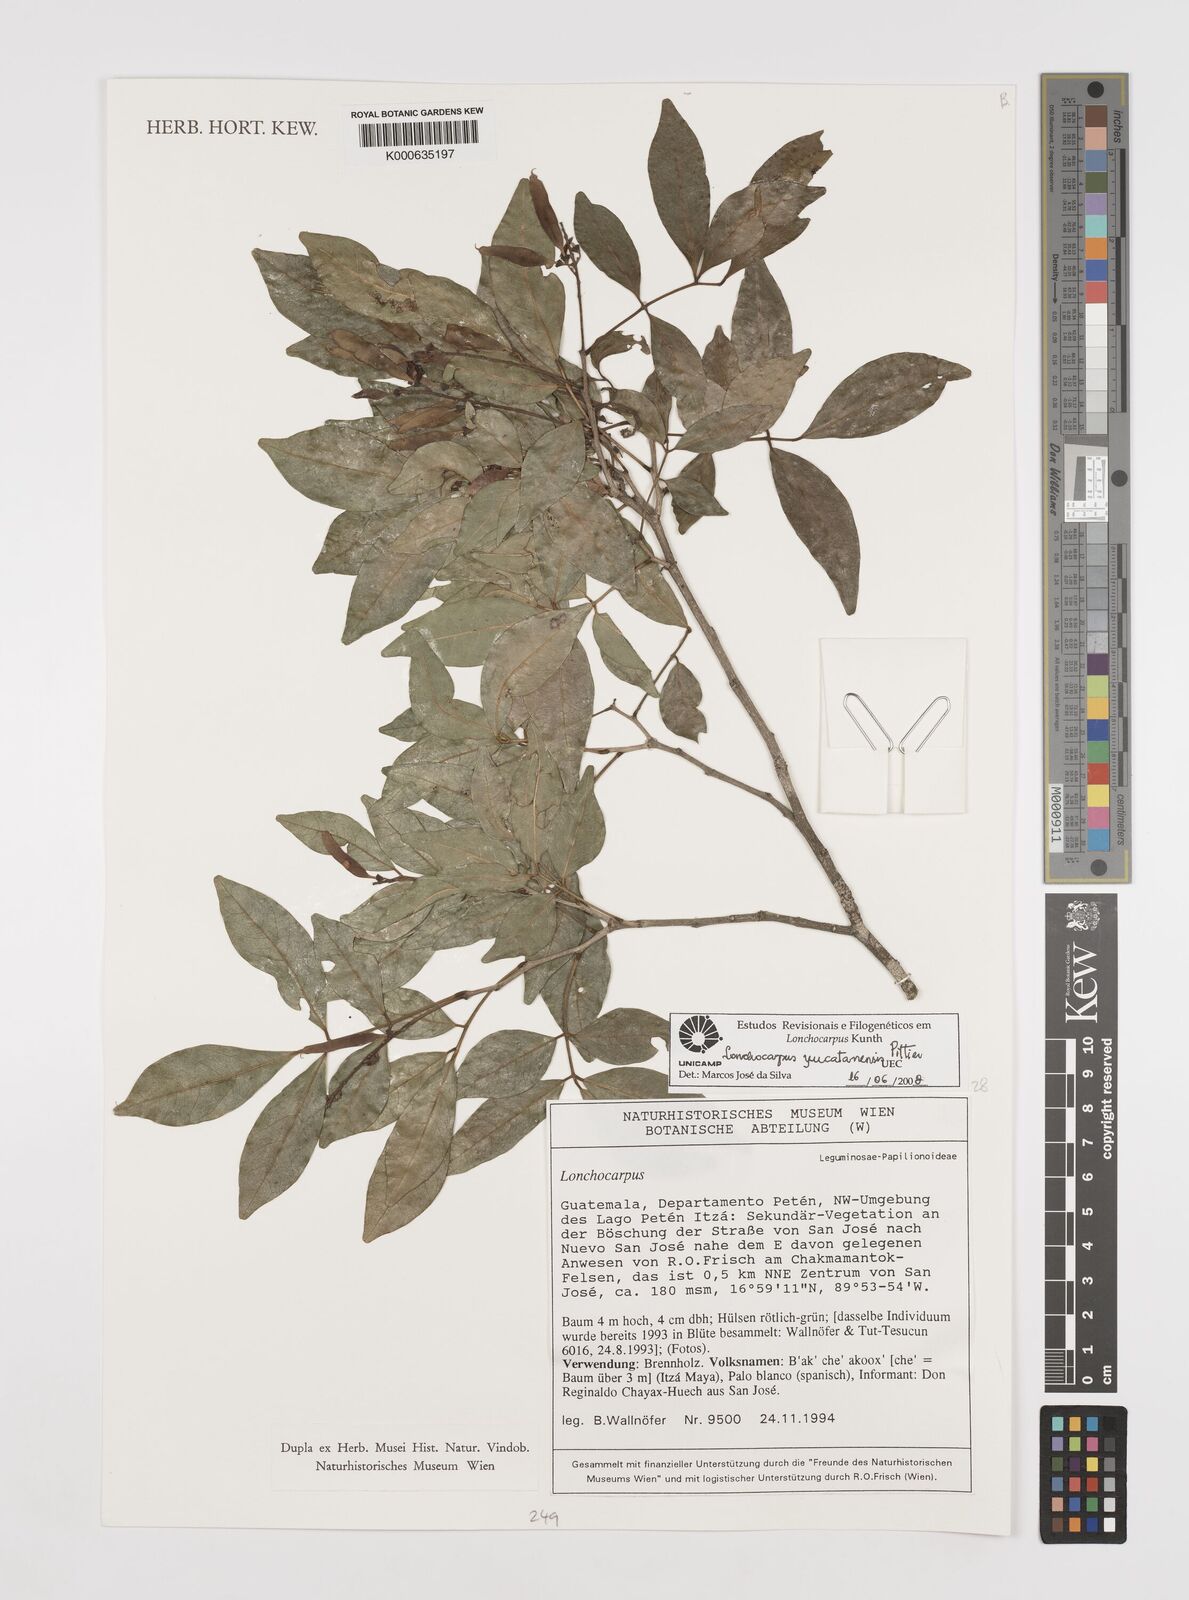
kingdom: Plantae
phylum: Tracheophyta
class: Magnoliopsida
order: Fabales
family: Fabaceae
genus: Lonchocarpus
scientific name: Lonchocarpus yucatanensis
